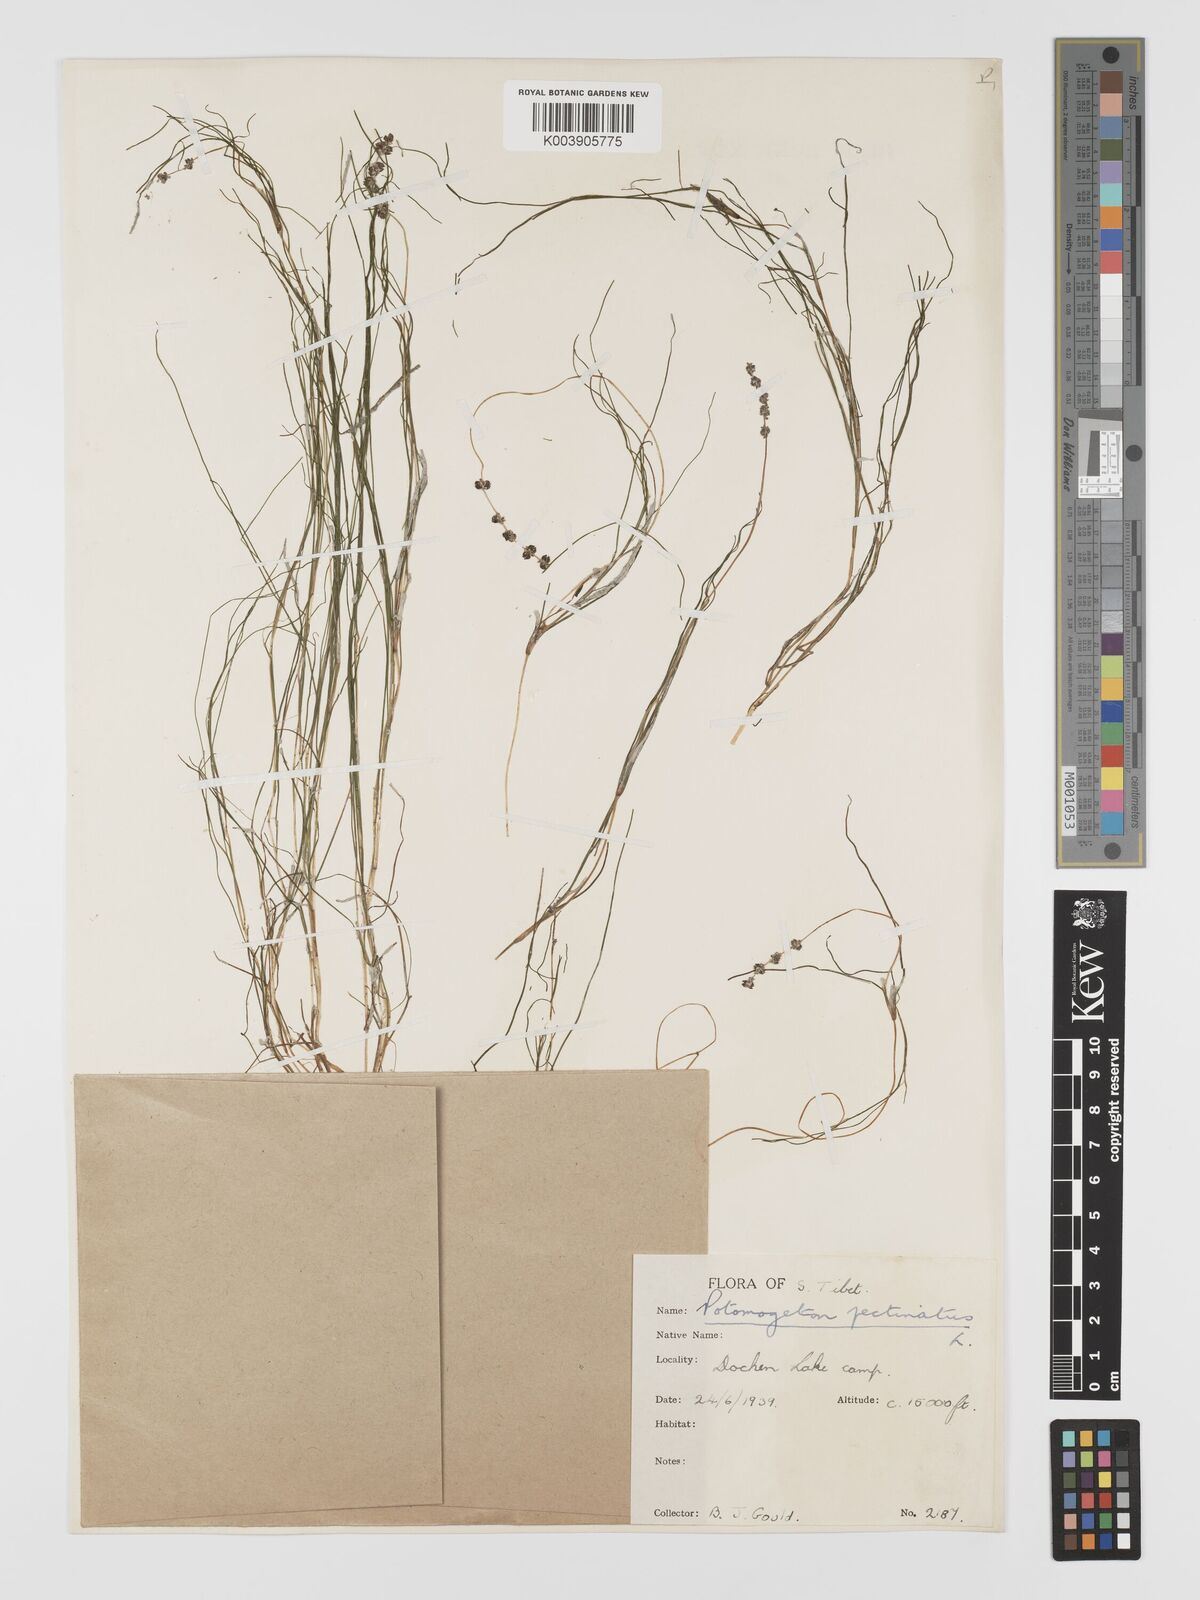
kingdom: Plantae
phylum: Tracheophyta
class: Liliopsida
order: Alismatales
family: Potamogetonaceae
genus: Stuckenia
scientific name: Stuckenia pectinata
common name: Sago pondweed
